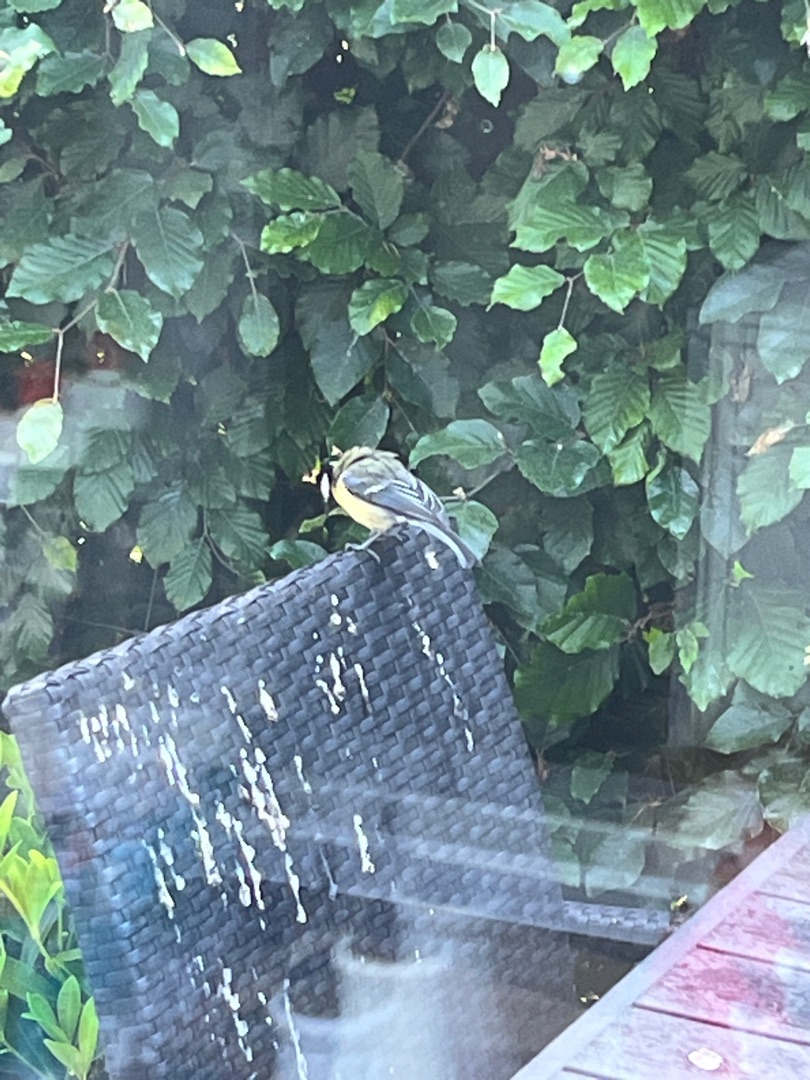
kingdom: Animalia
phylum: Chordata
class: Aves
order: Passeriformes
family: Paridae
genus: Parus
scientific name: Parus major
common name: Musvit
